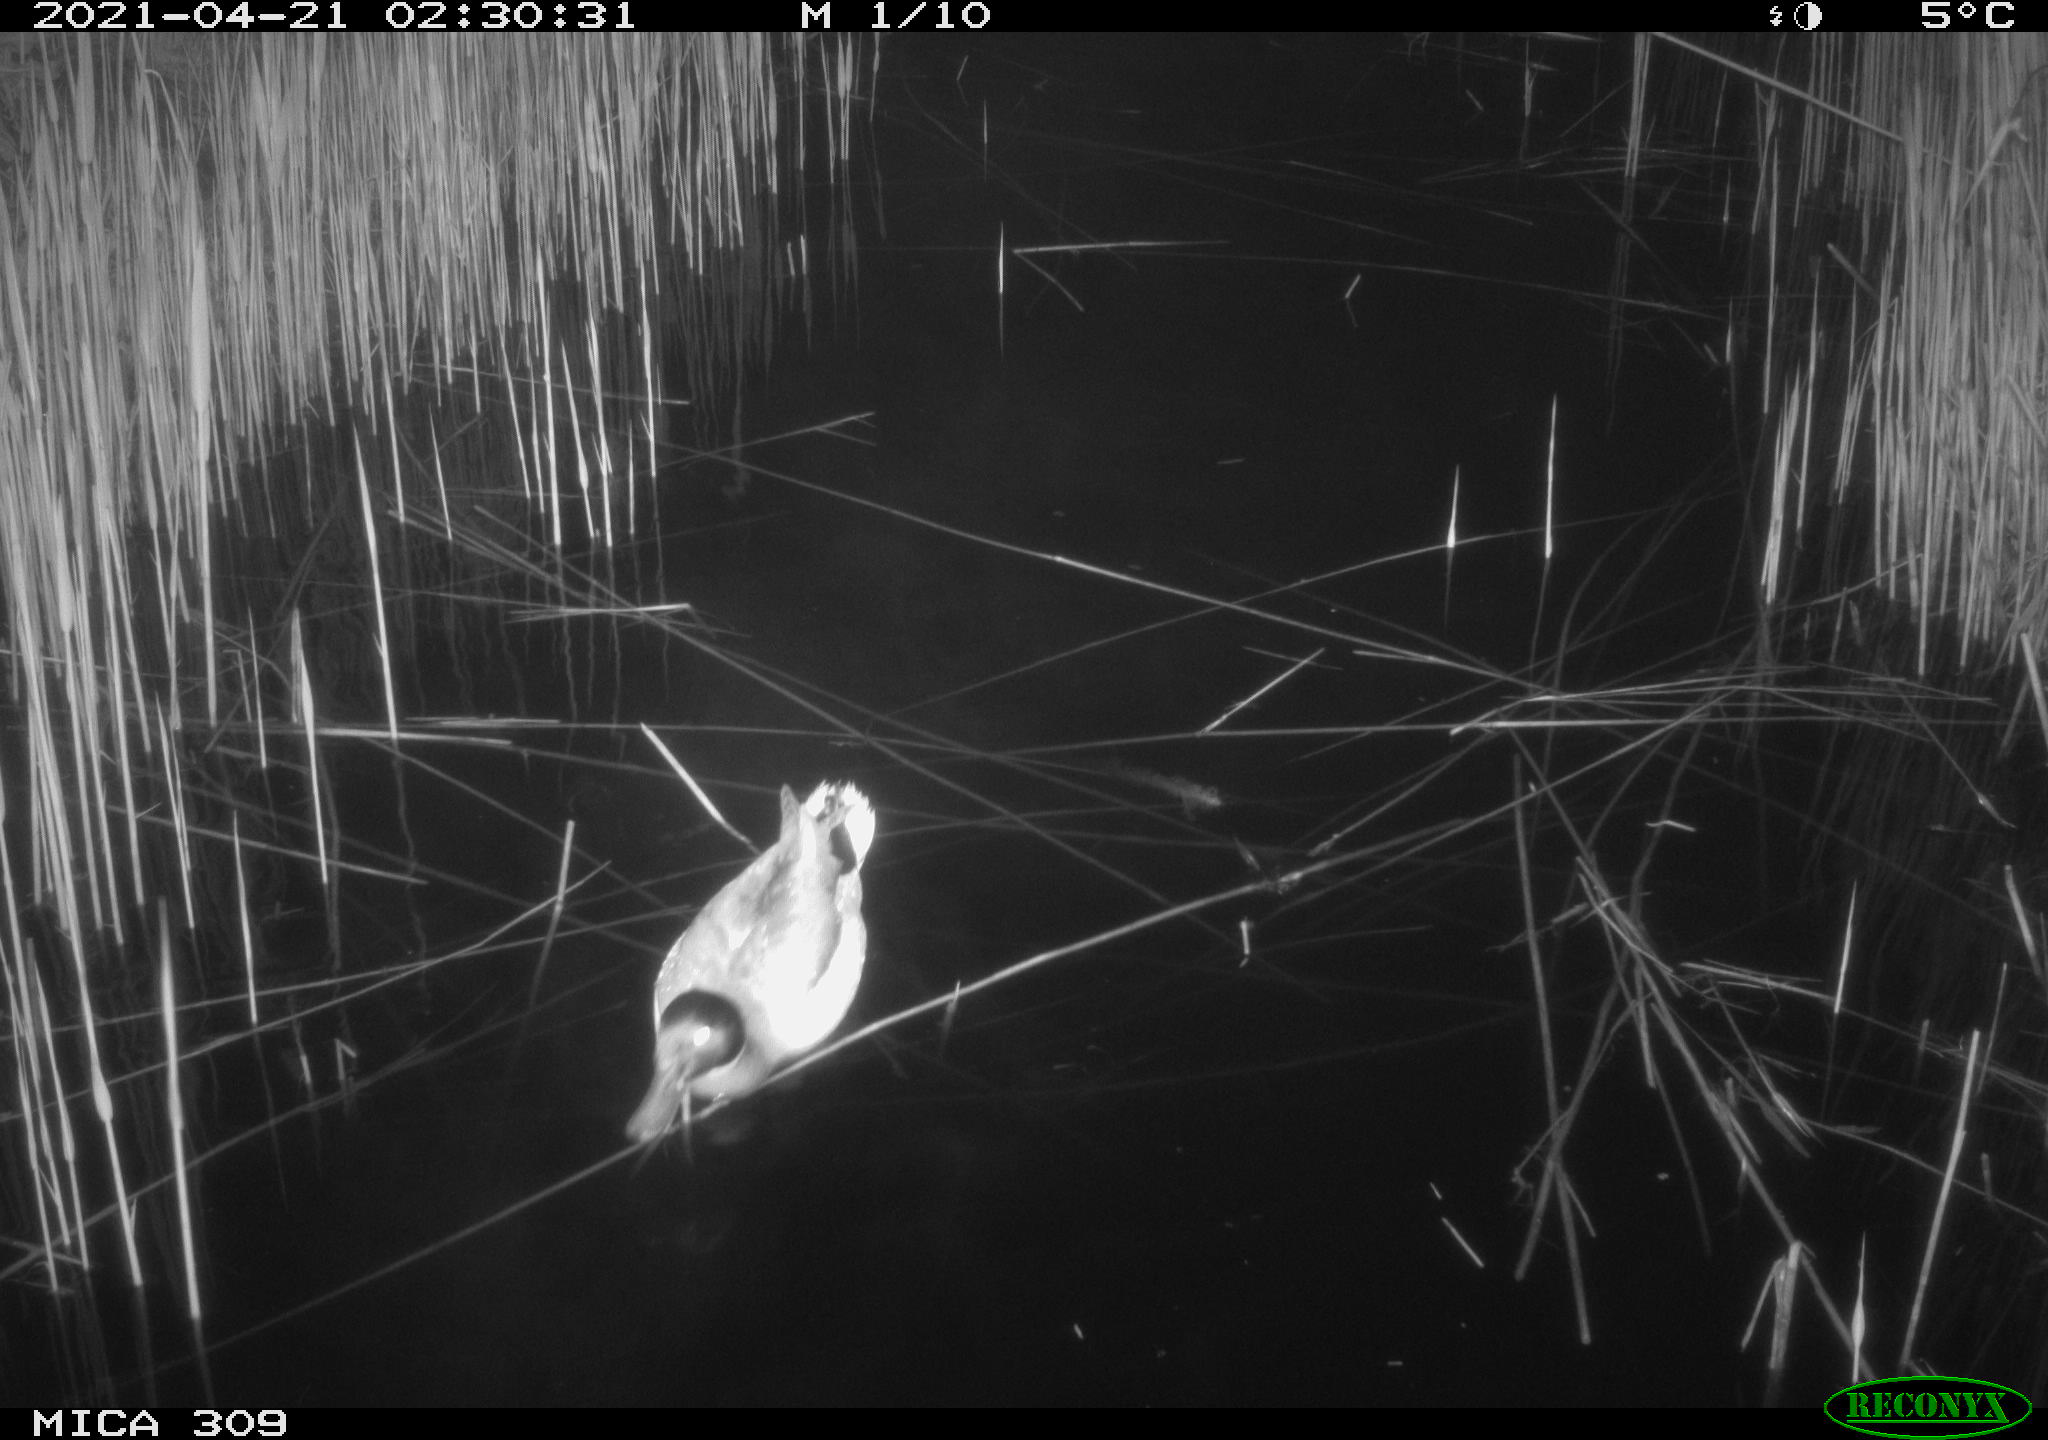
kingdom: Animalia
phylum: Chordata
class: Aves
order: Anseriformes
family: Anatidae
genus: Anas
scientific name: Anas platyrhynchos
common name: Mallard
